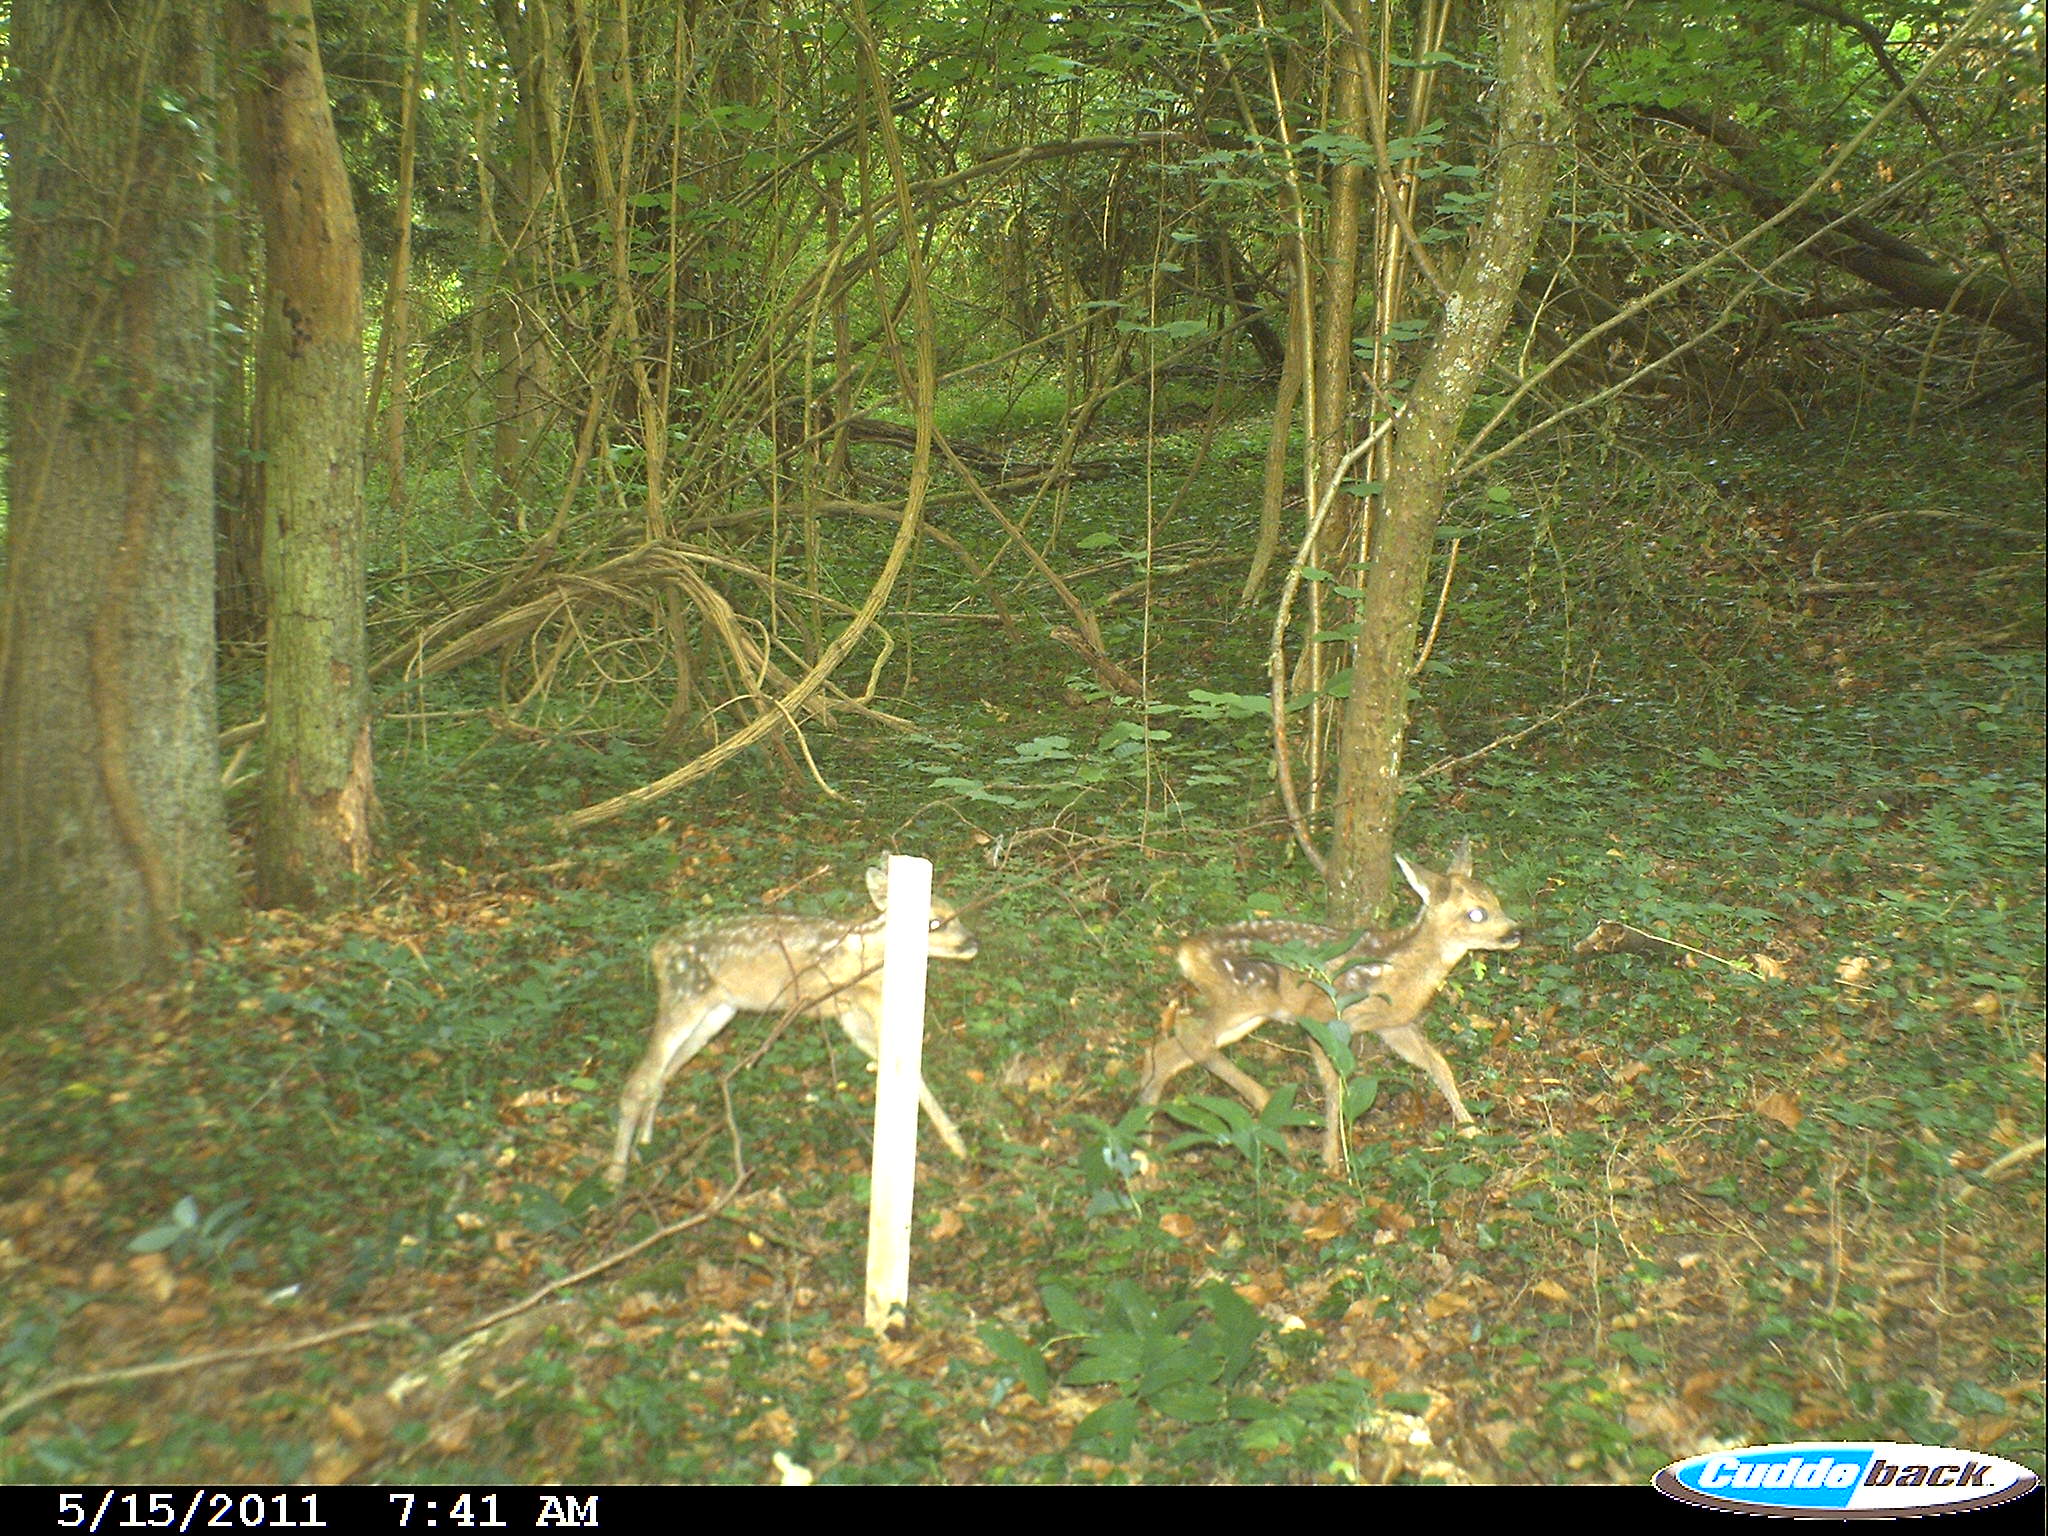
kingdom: Animalia
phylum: Chordata
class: Mammalia
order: Artiodactyla
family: Cervidae
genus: Capreolus
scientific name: Capreolus capreolus
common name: Western roe deer
